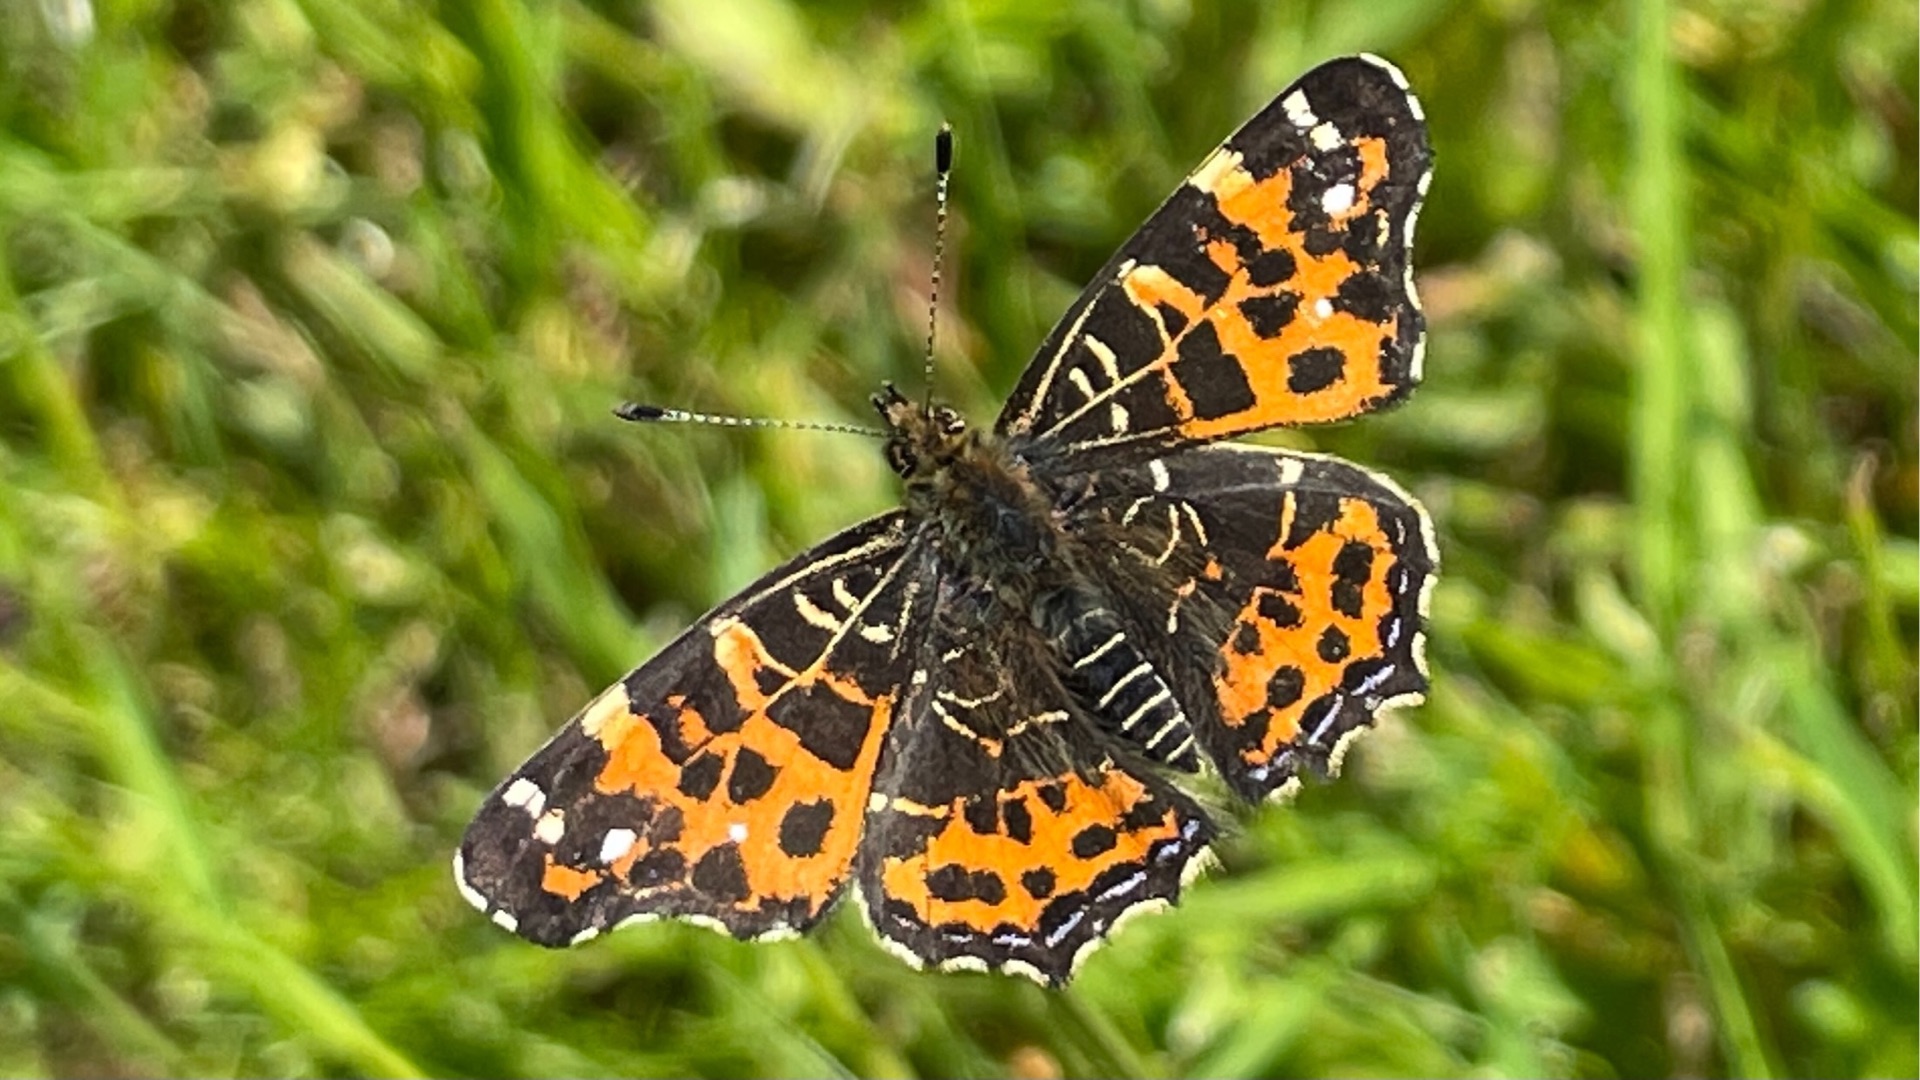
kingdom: Animalia
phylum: Arthropoda
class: Insecta
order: Lepidoptera
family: Nymphalidae
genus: Araschnia
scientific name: Araschnia levana
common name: Nældesommerfugl
